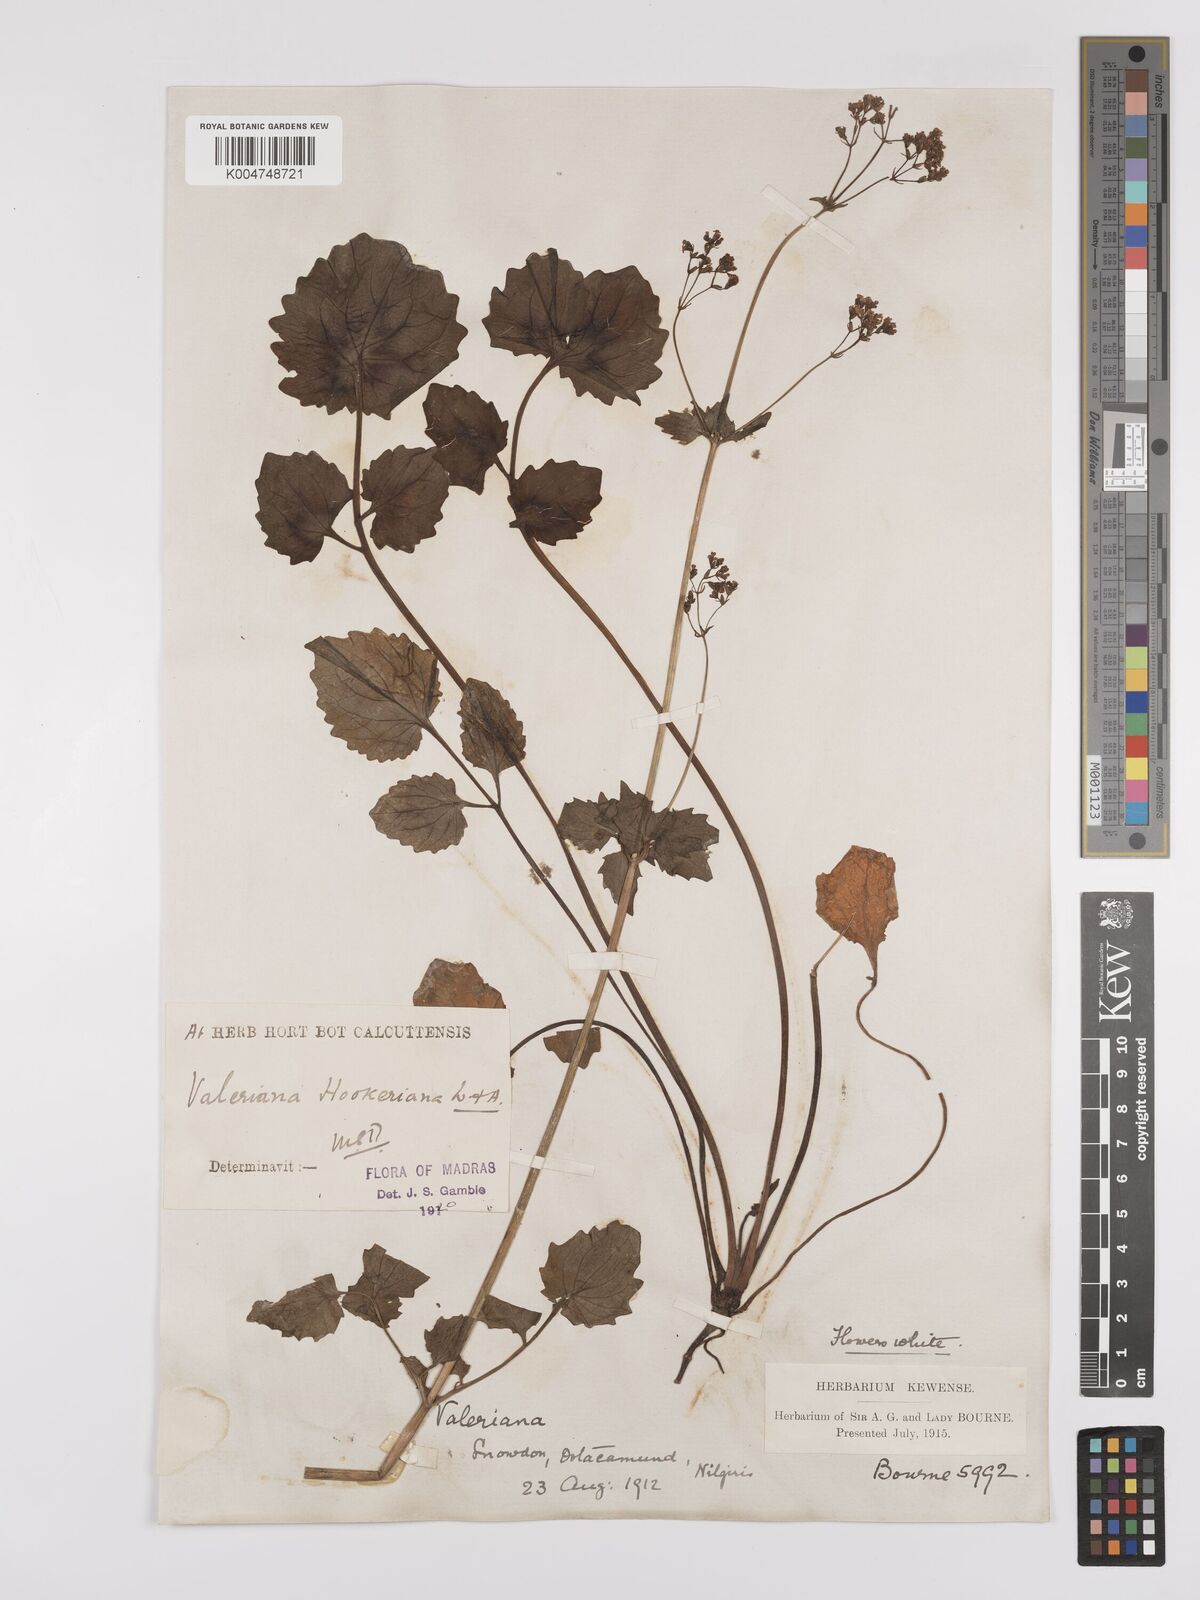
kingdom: Plantae
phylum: Tracheophyta
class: Magnoliopsida
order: Dipsacales
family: Caprifoliaceae
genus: Valeriana
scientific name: Valeriana hardwickei
